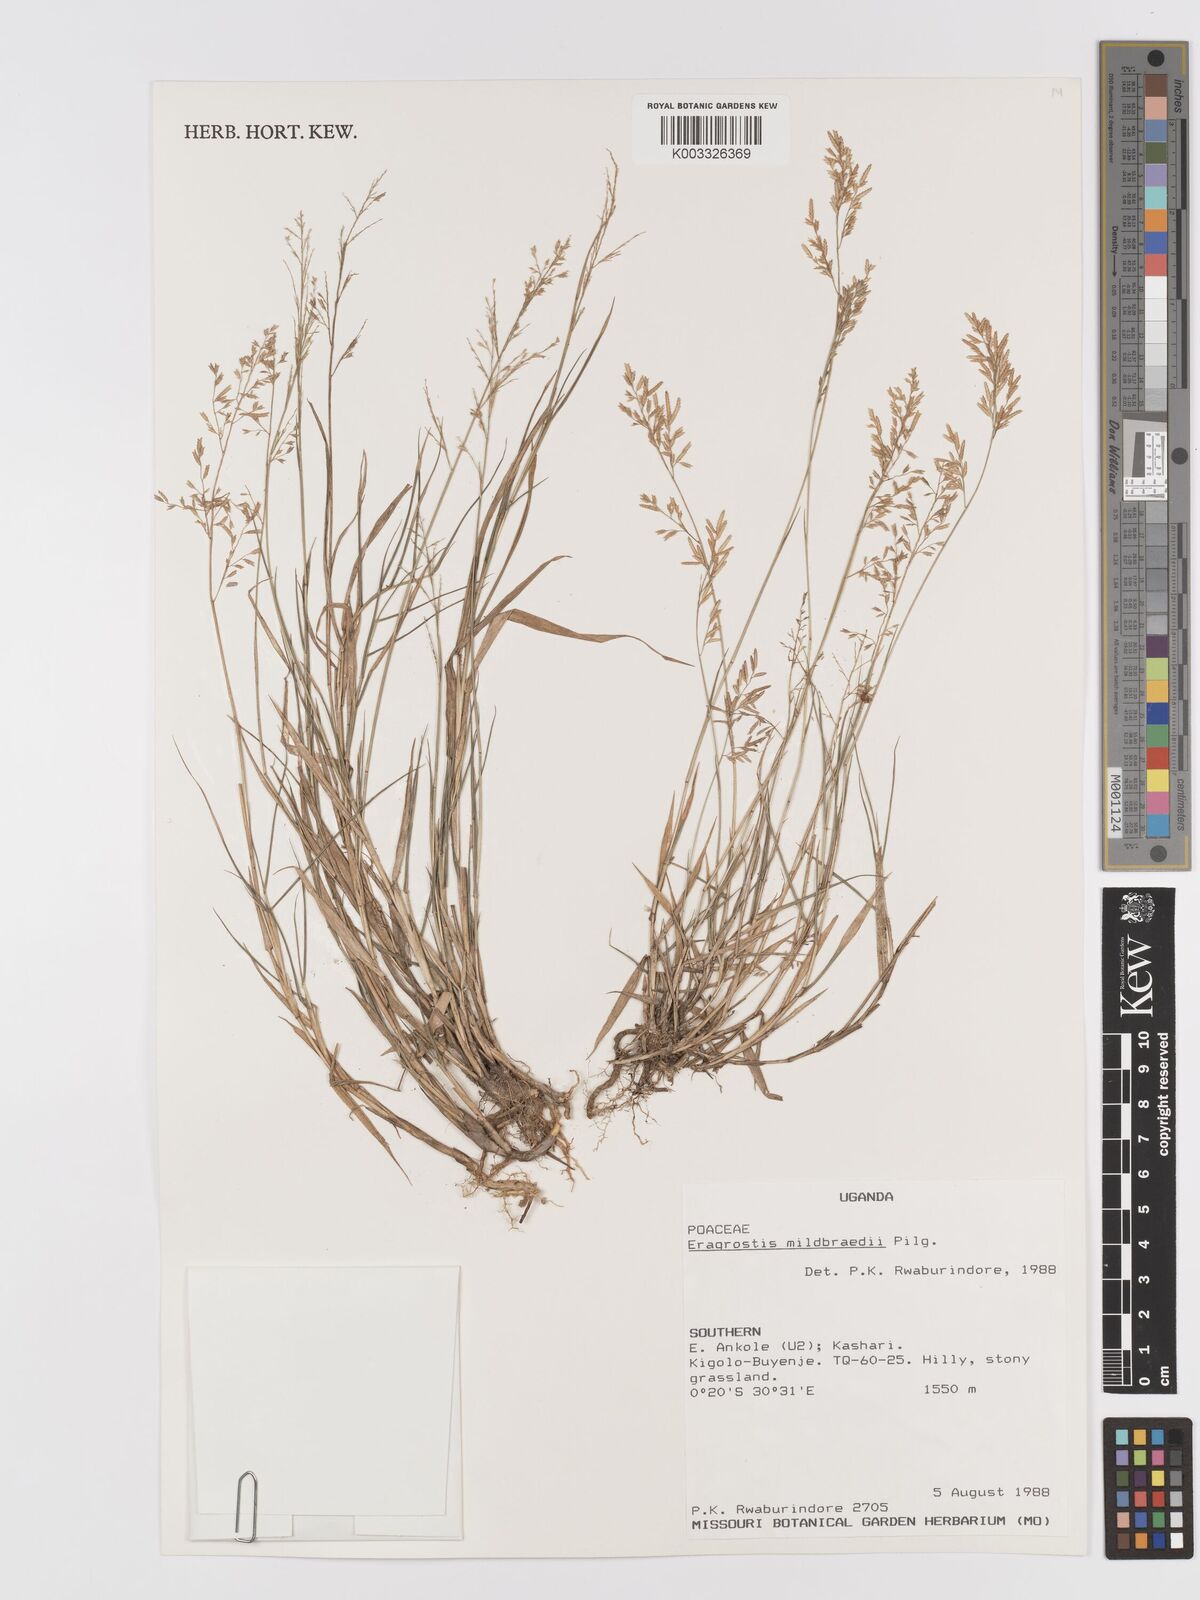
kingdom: Plantae
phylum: Tracheophyta
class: Liliopsida
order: Poales
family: Poaceae
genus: Eragrostis
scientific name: Eragrostis mildbraedii
